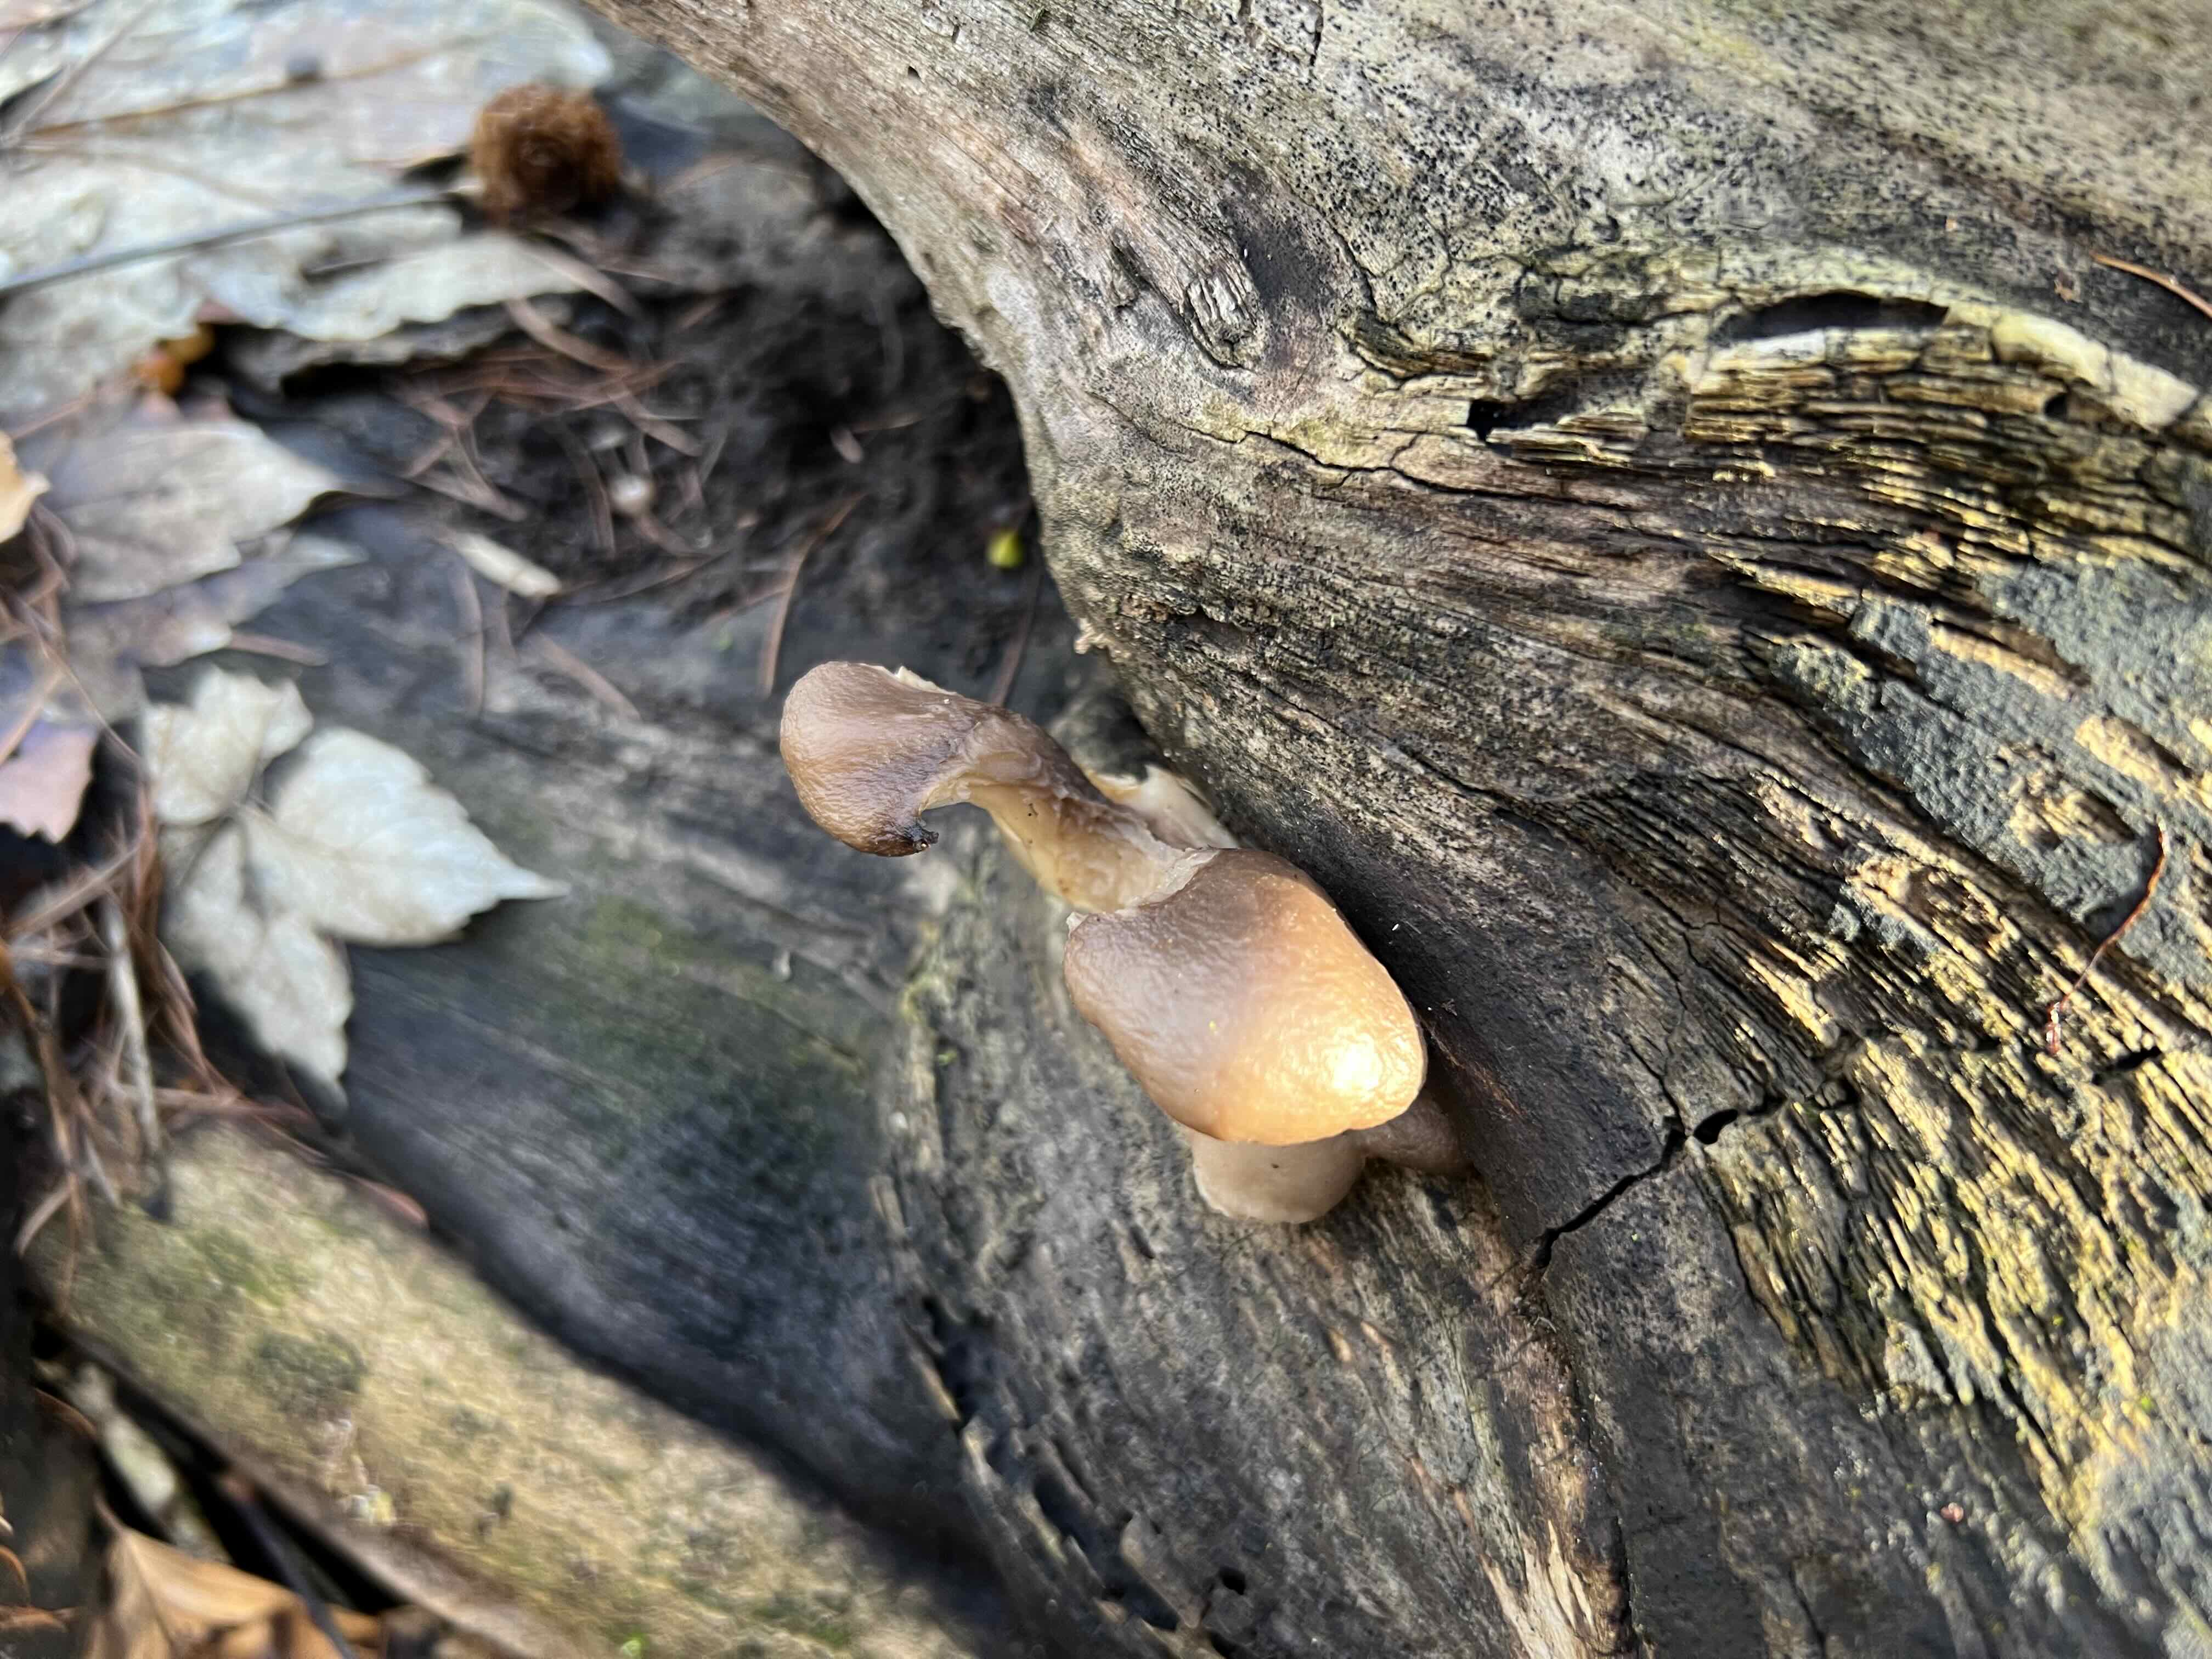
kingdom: Fungi
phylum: Basidiomycota
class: Agaricomycetes
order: Agaricales
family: Pleurotaceae
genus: Pleurotus
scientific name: Pleurotus ostreatus
